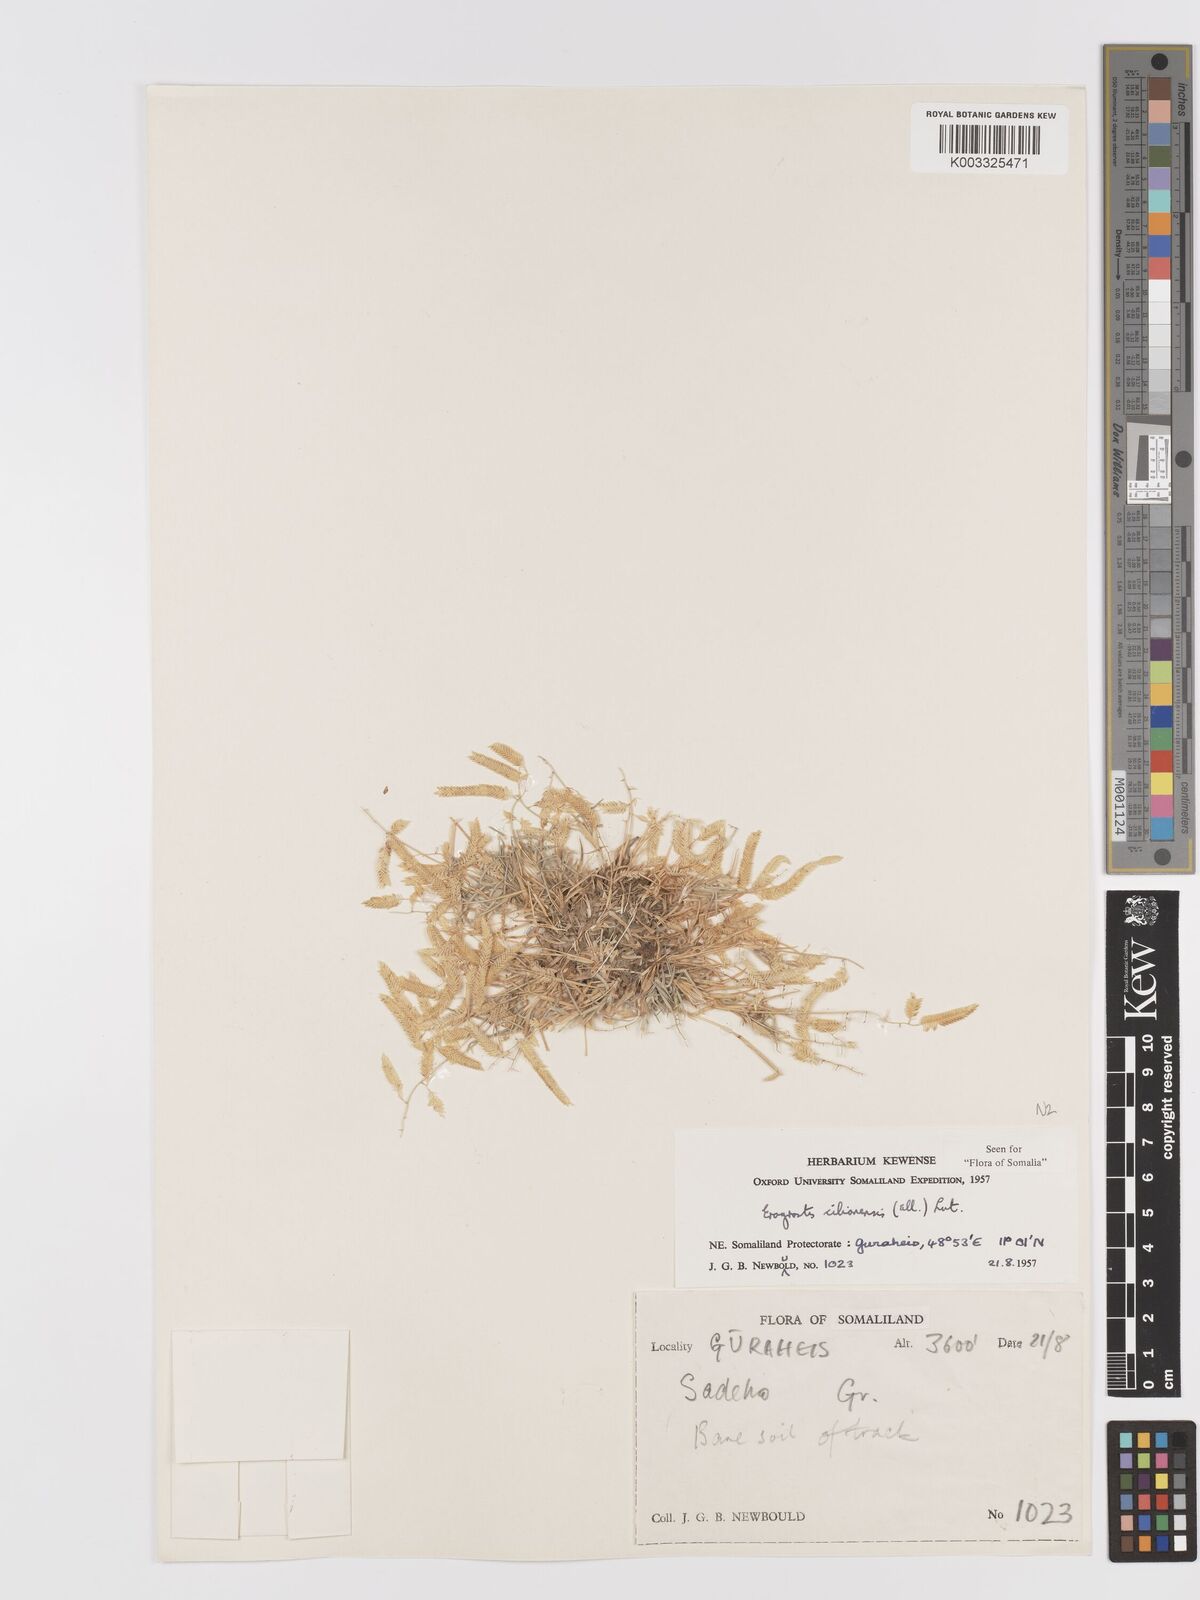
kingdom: Plantae
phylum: Tracheophyta
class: Liliopsida
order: Poales
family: Poaceae
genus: Eragrostis
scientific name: Eragrostis cilianensis
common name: Stinkgrass
